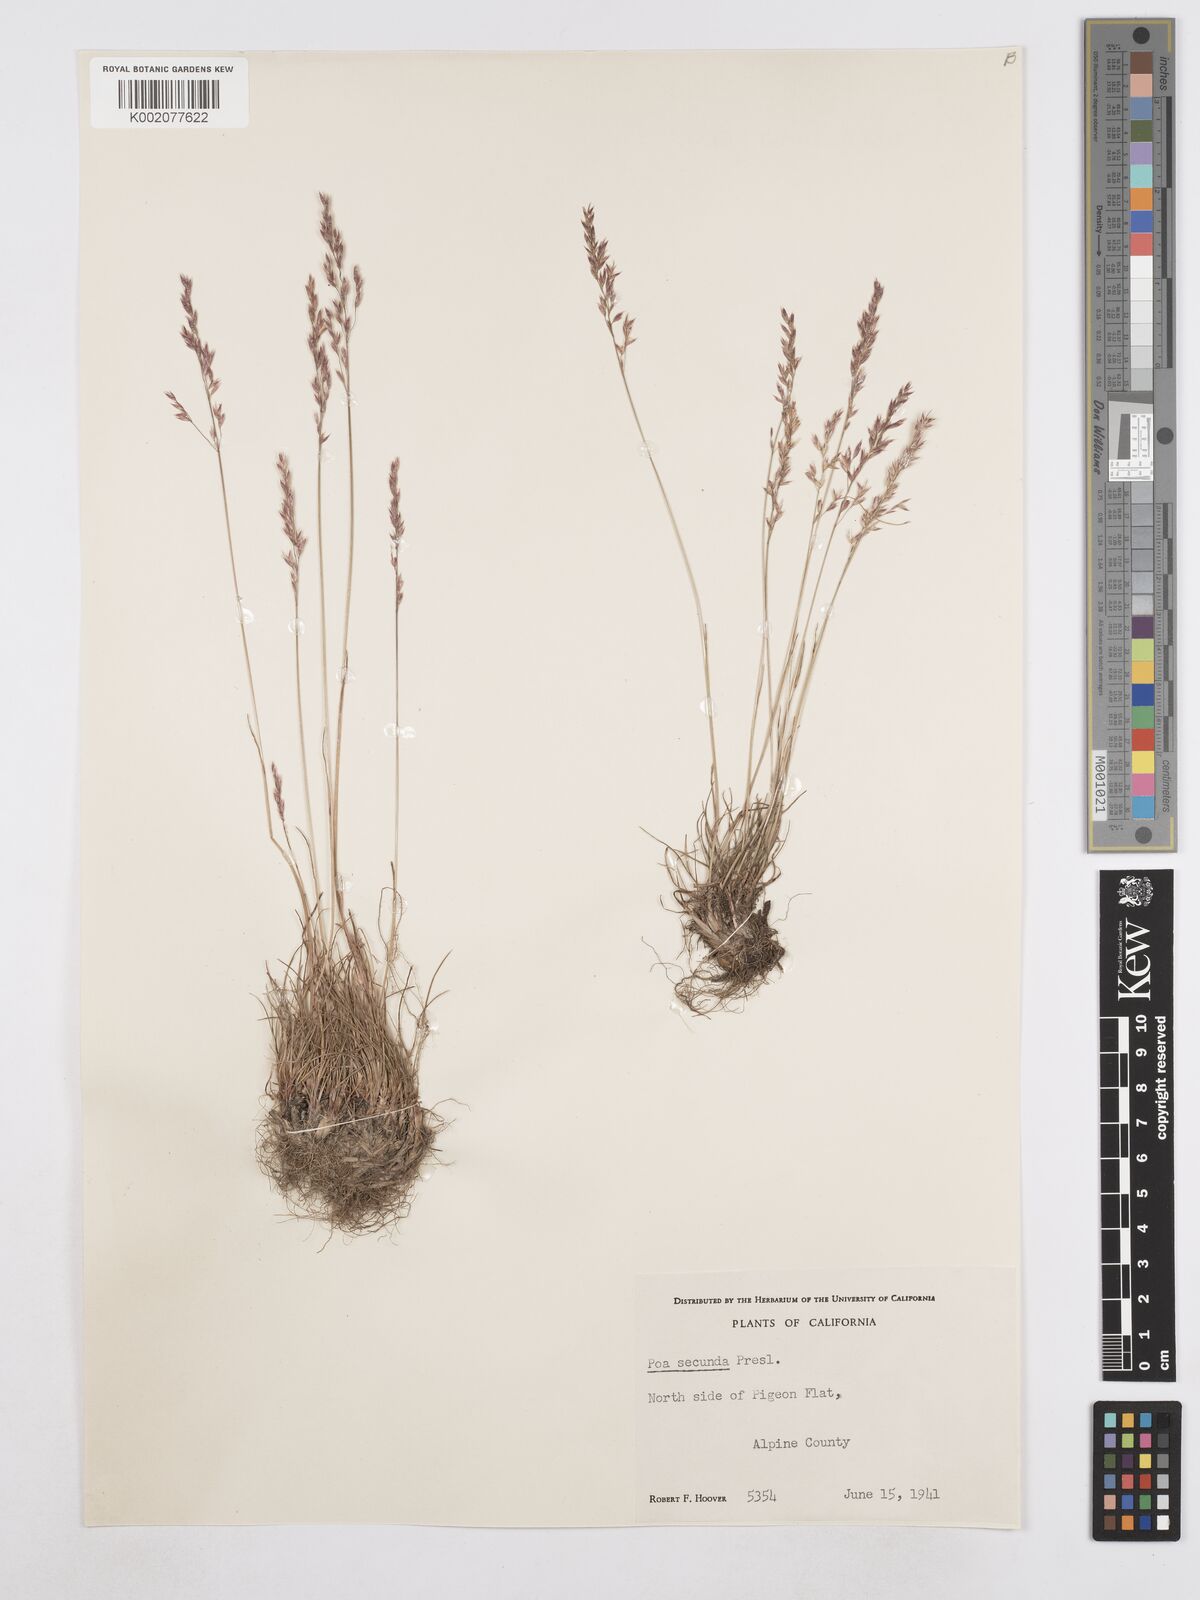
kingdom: Plantae
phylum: Tracheophyta
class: Liliopsida
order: Poales
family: Poaceae
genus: Poa
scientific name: Poa secunda
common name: Sandberg bluegrass
